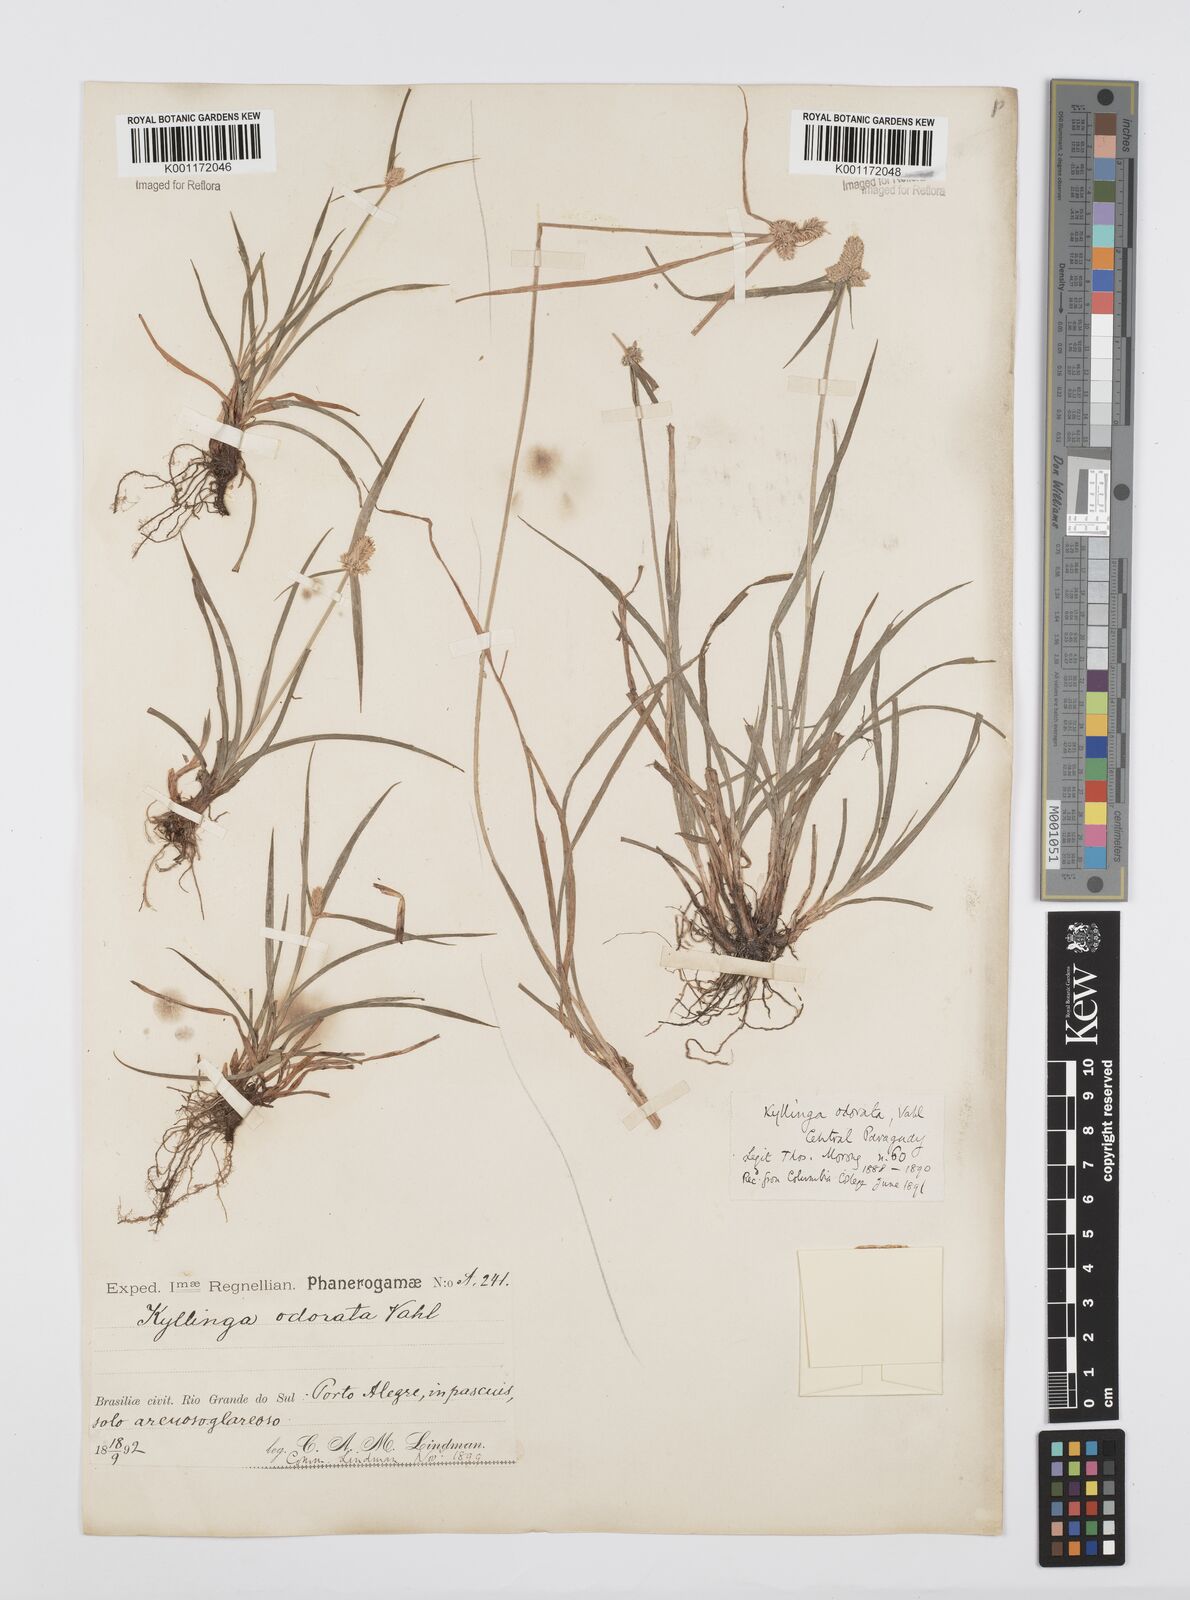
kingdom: Plantae
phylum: Tracheophyta
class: Liliopsida
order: Poales
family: Cyperaceae
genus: Cyperus
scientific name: Cyperus
